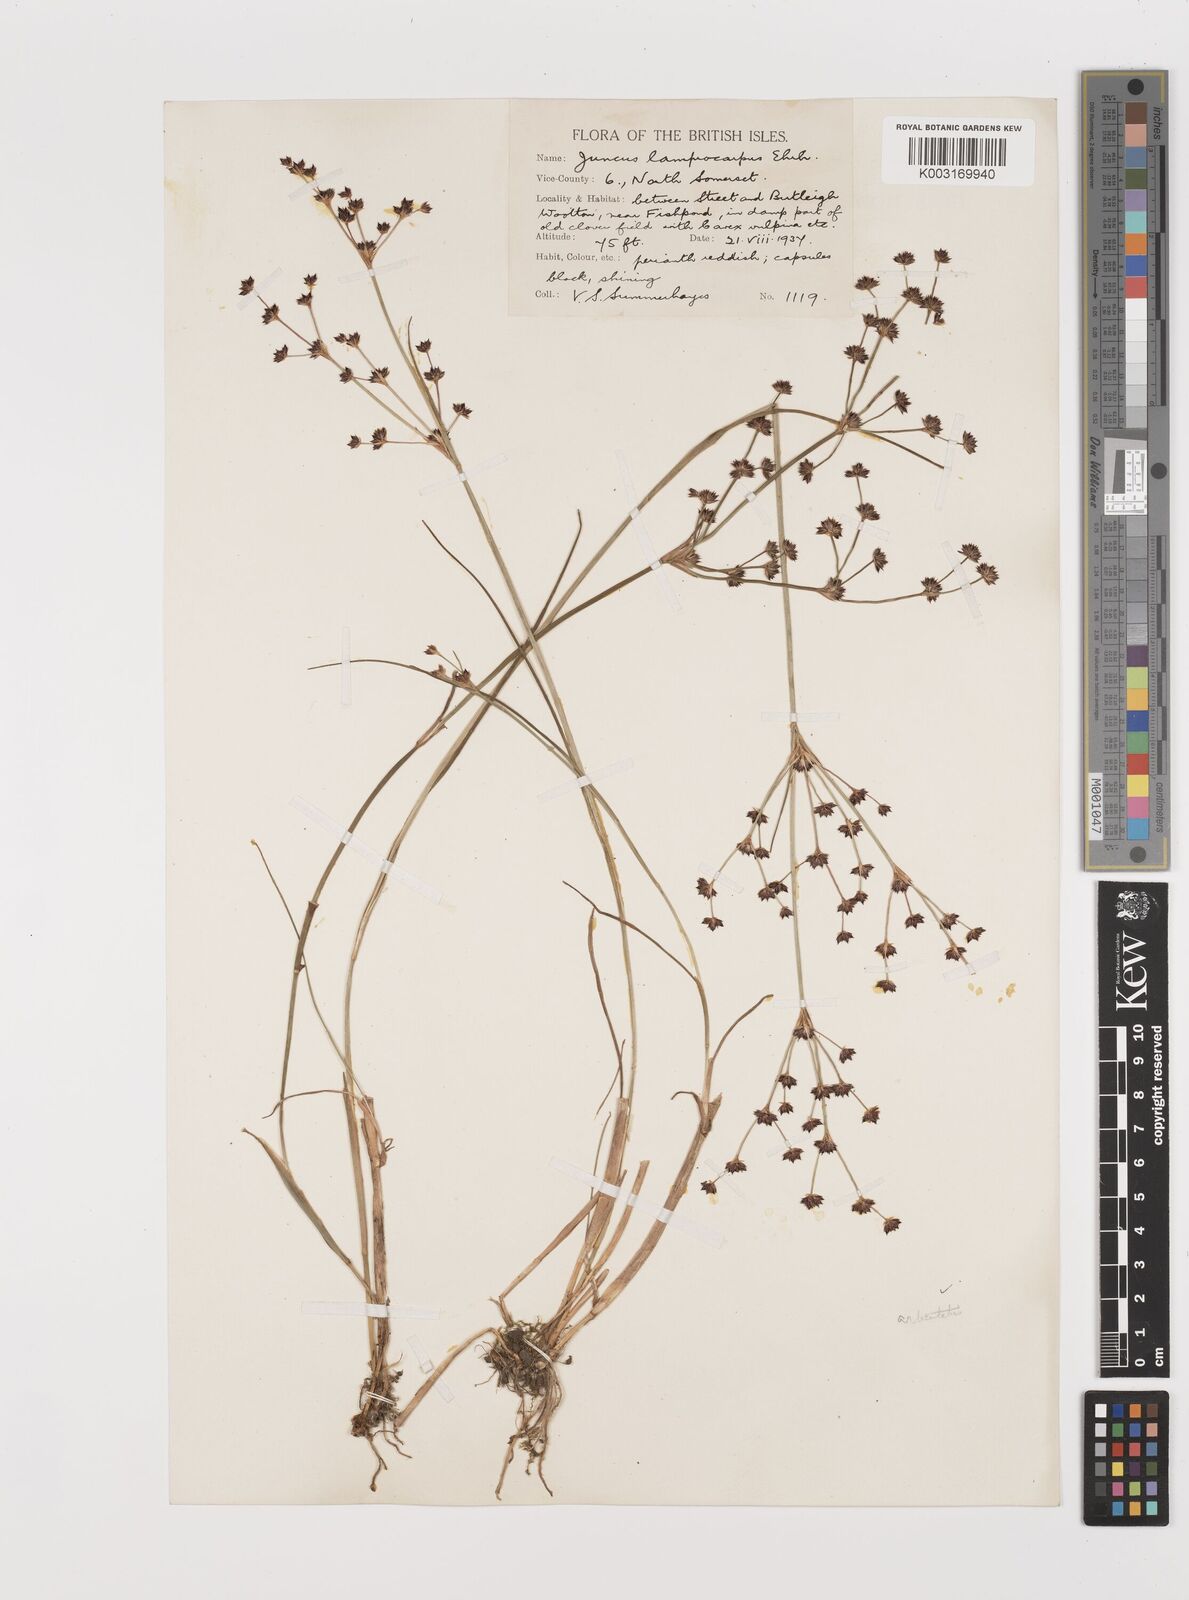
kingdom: Plantae
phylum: Tracheophyta
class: Liliopsida
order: Poales
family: Juncaceae
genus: Juncus
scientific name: Juncus articulatus
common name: Jointed rush
